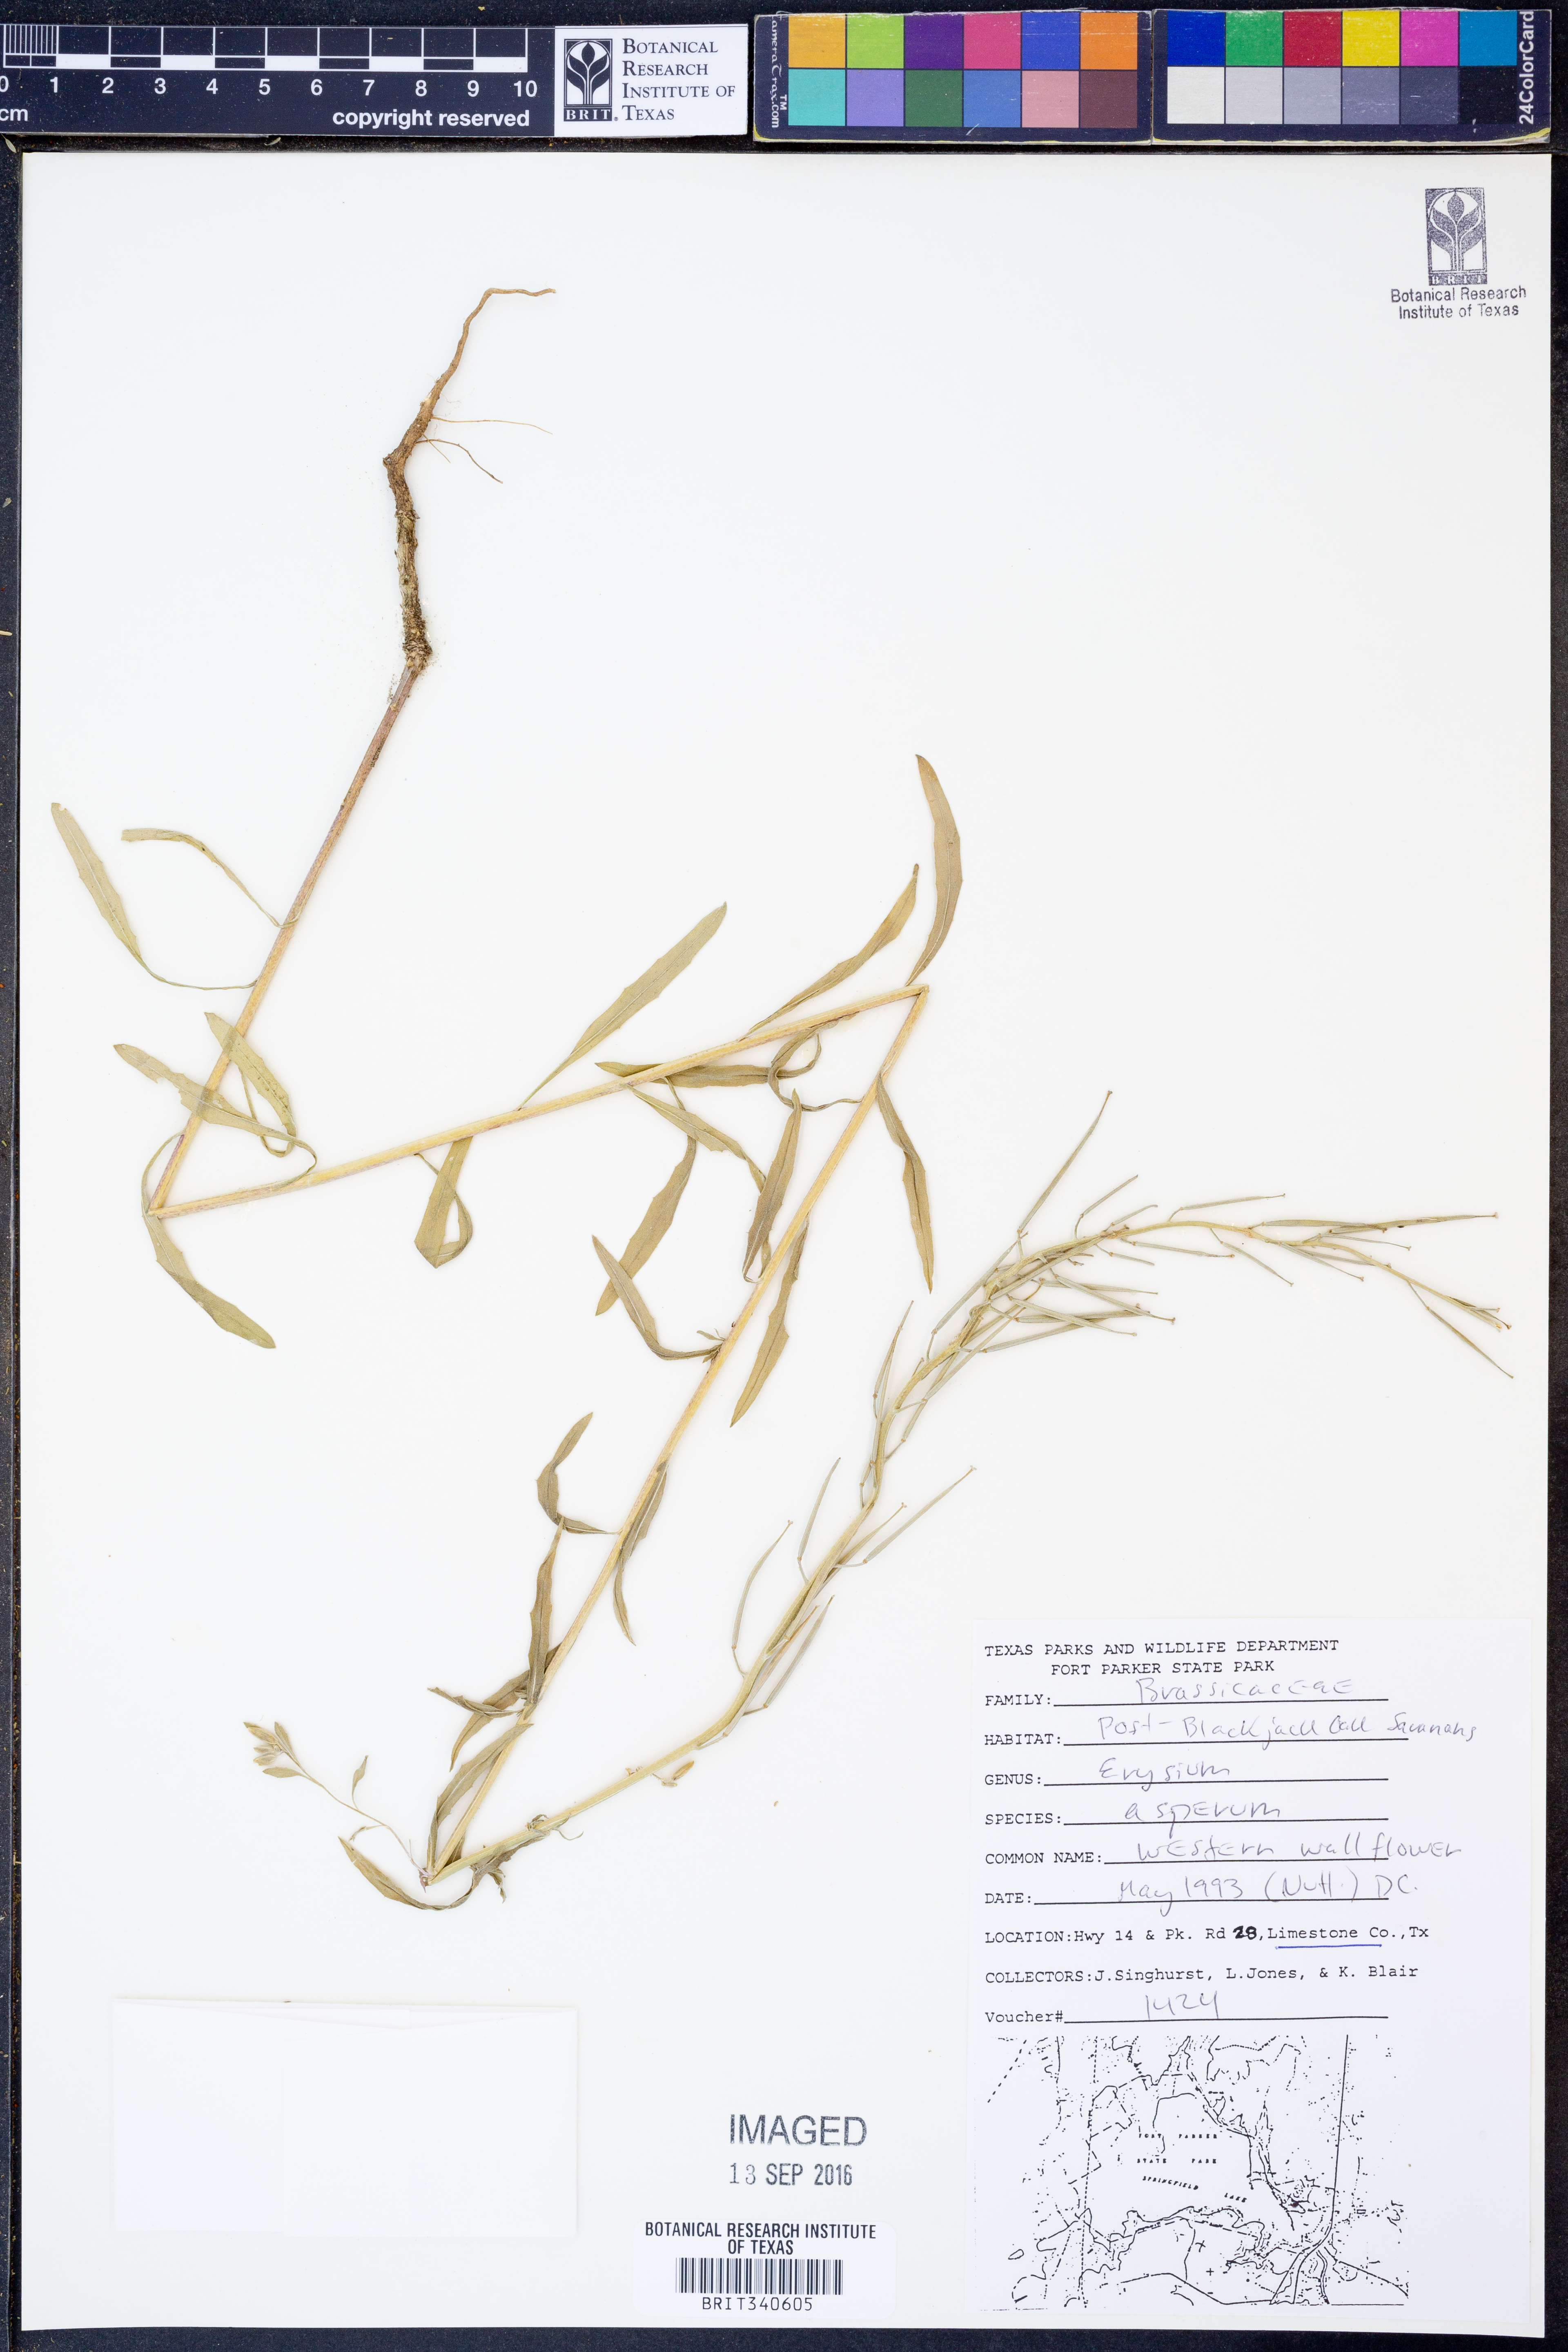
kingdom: Plantae
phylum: Tracheophyta
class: Magnoliopsida
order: Brassicales
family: Brassicaceae
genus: Erysimum
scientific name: Erysimum asperum
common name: Western wallflower
